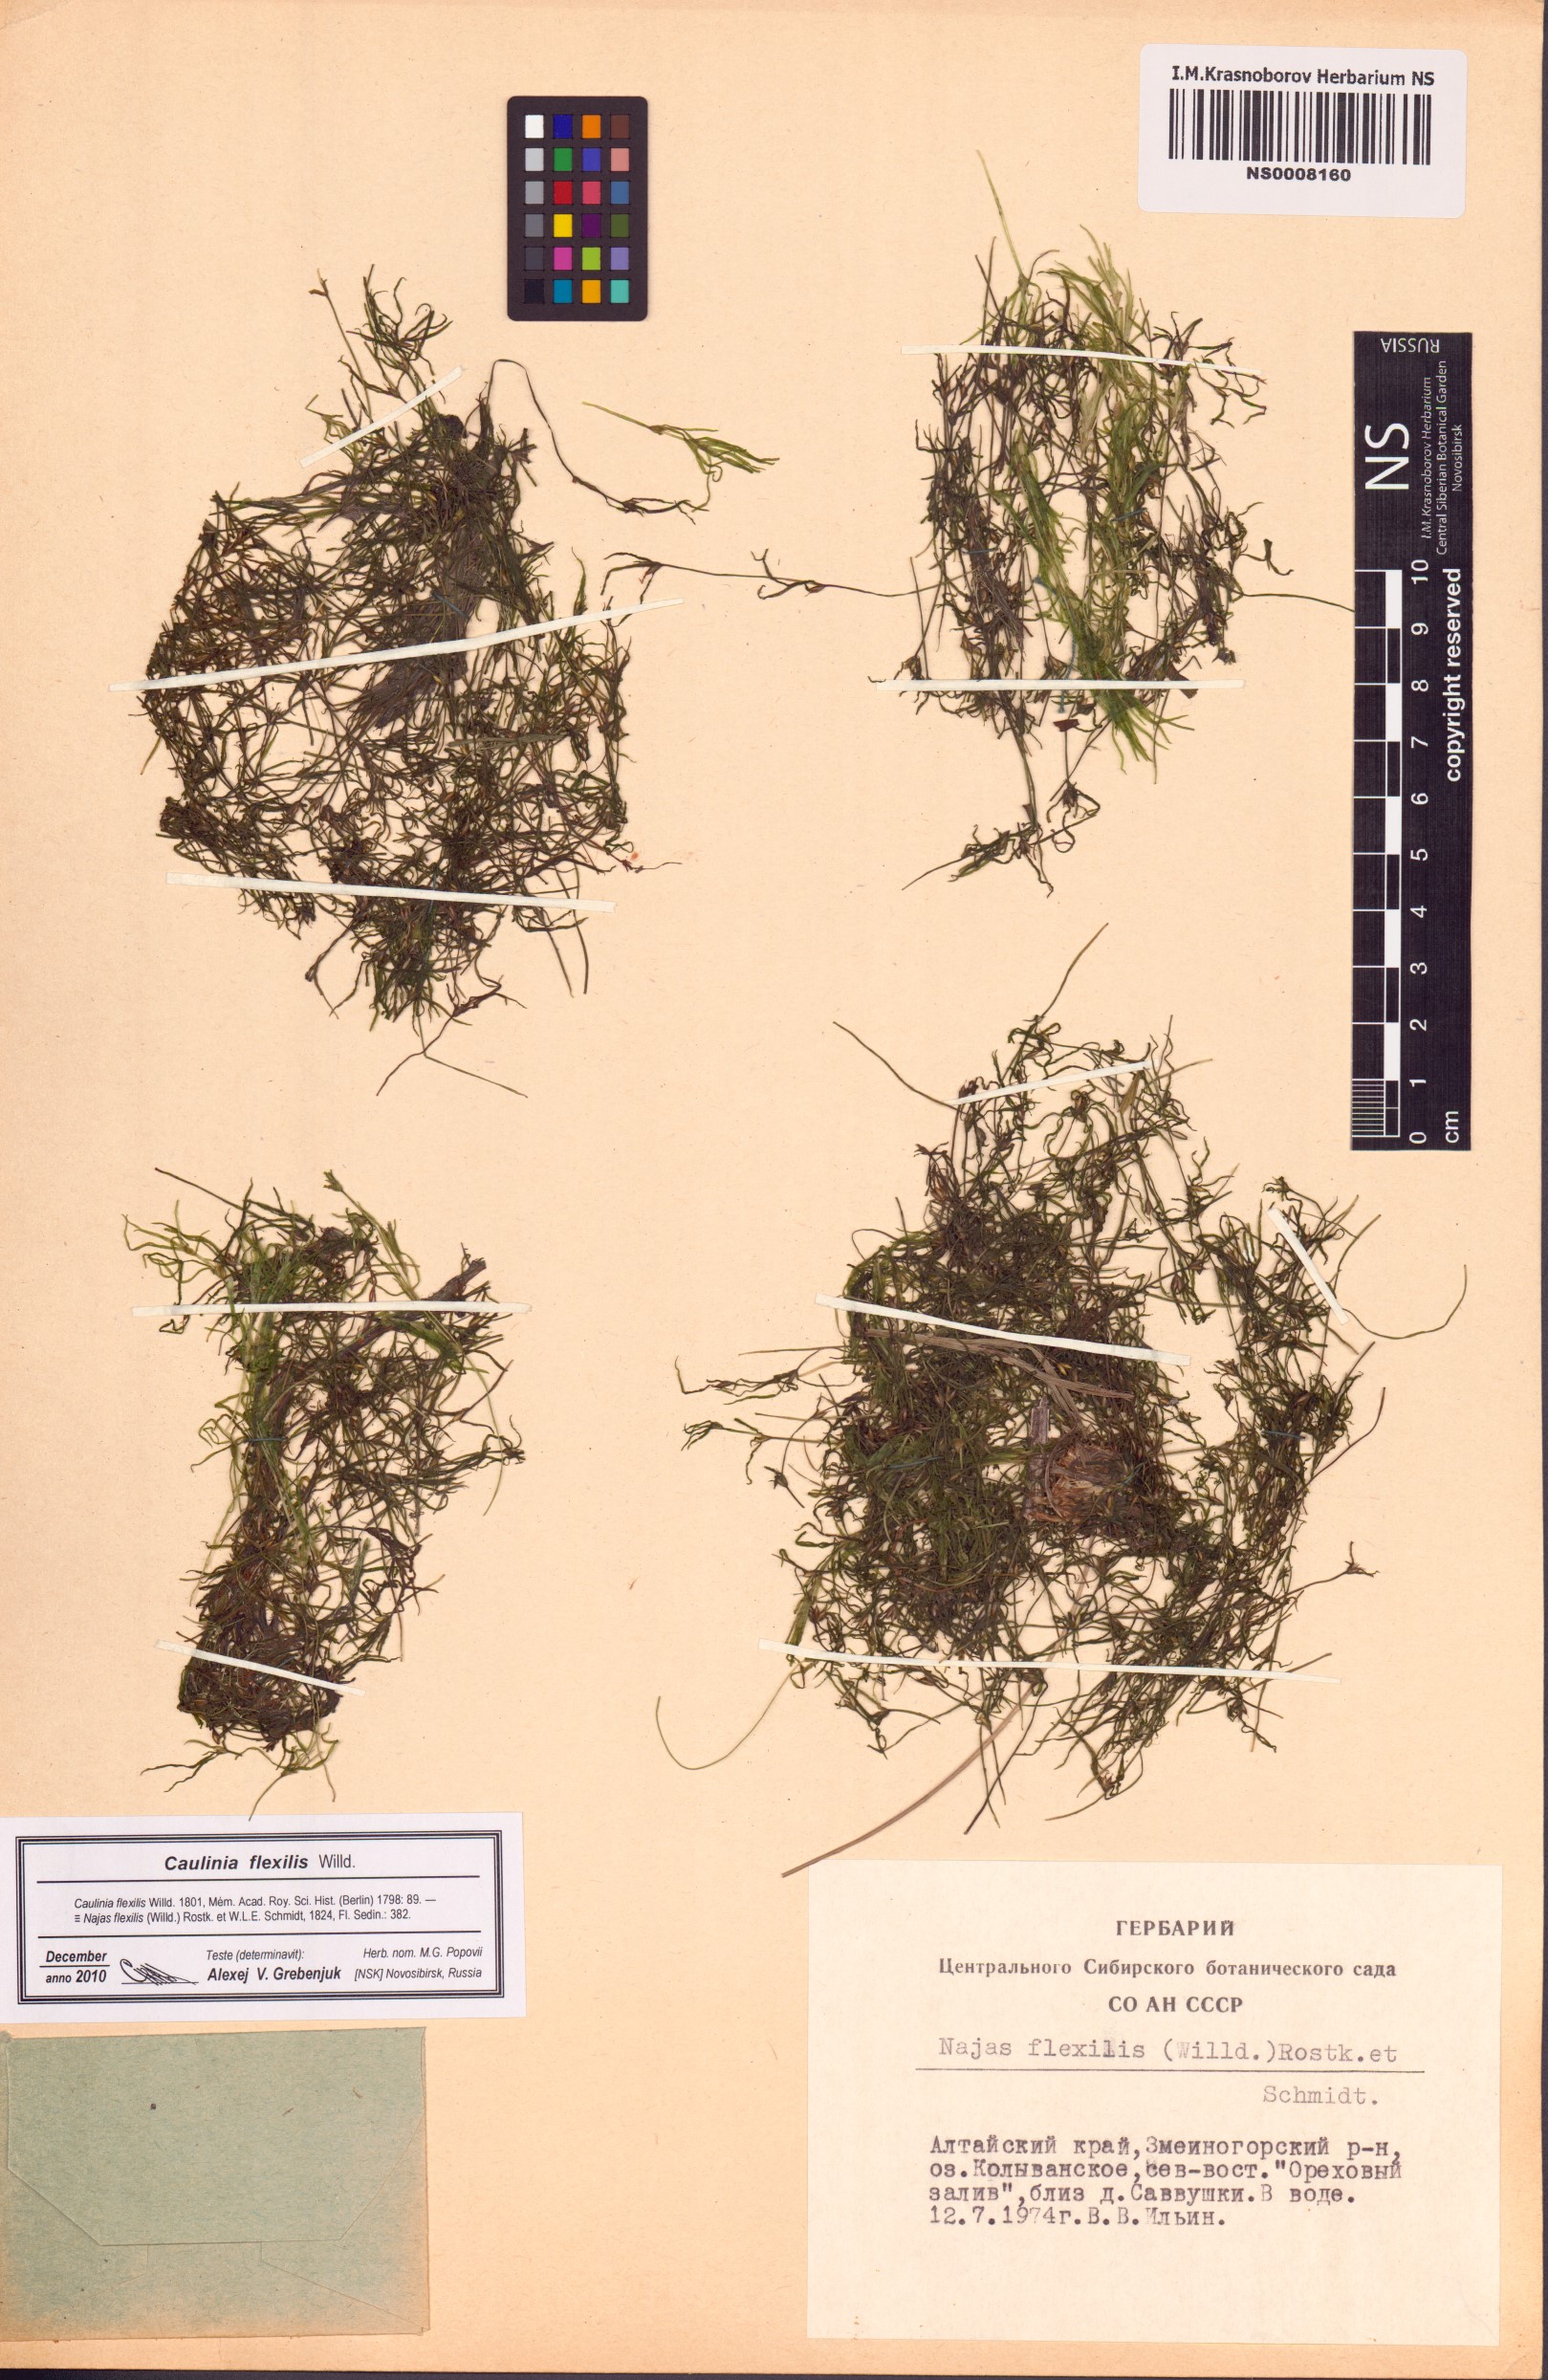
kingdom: Plantae
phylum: Tracheophyta
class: Liliopsida
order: Alismatales
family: Hydrocharitaceae
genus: Najas
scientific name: Najas flexilis
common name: Slender naiad
